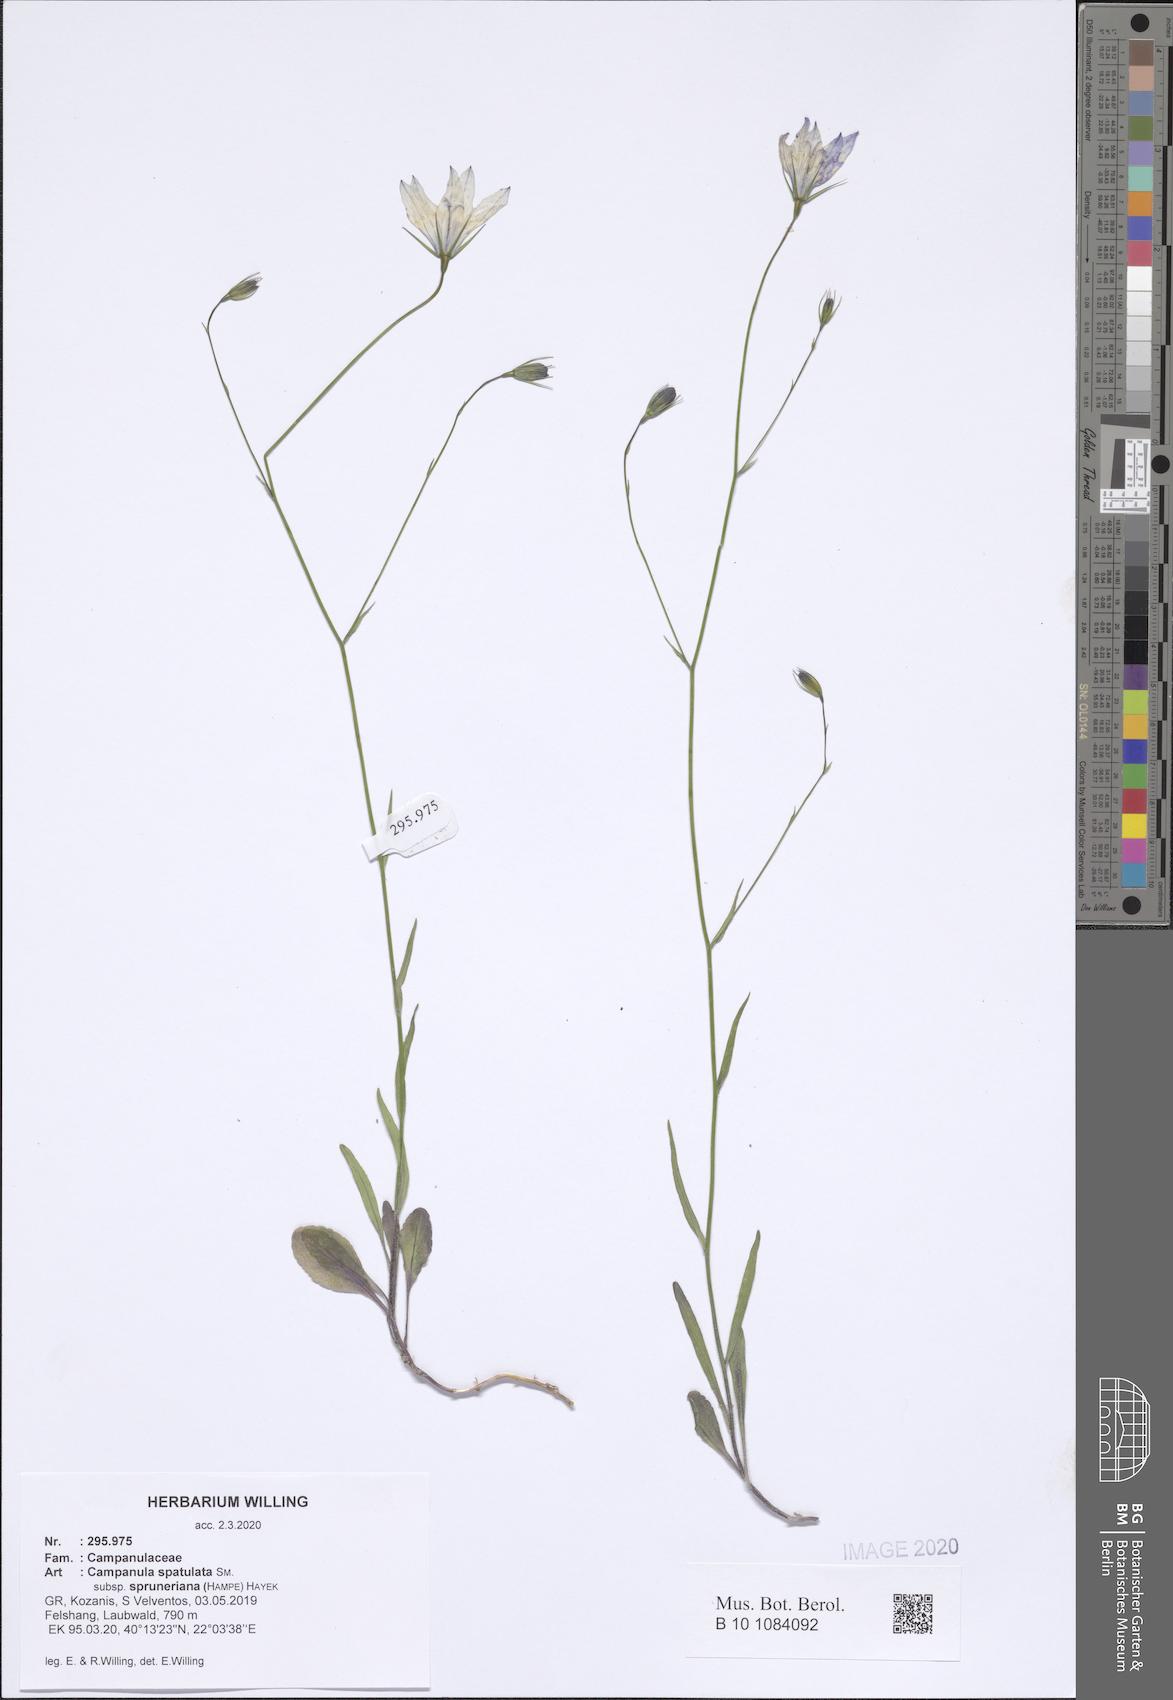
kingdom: Plantae
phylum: Tracheophyta
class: Magnoliopsida
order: Asterales
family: Campanulaceae
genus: Campanula
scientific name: Campanula spatulata
